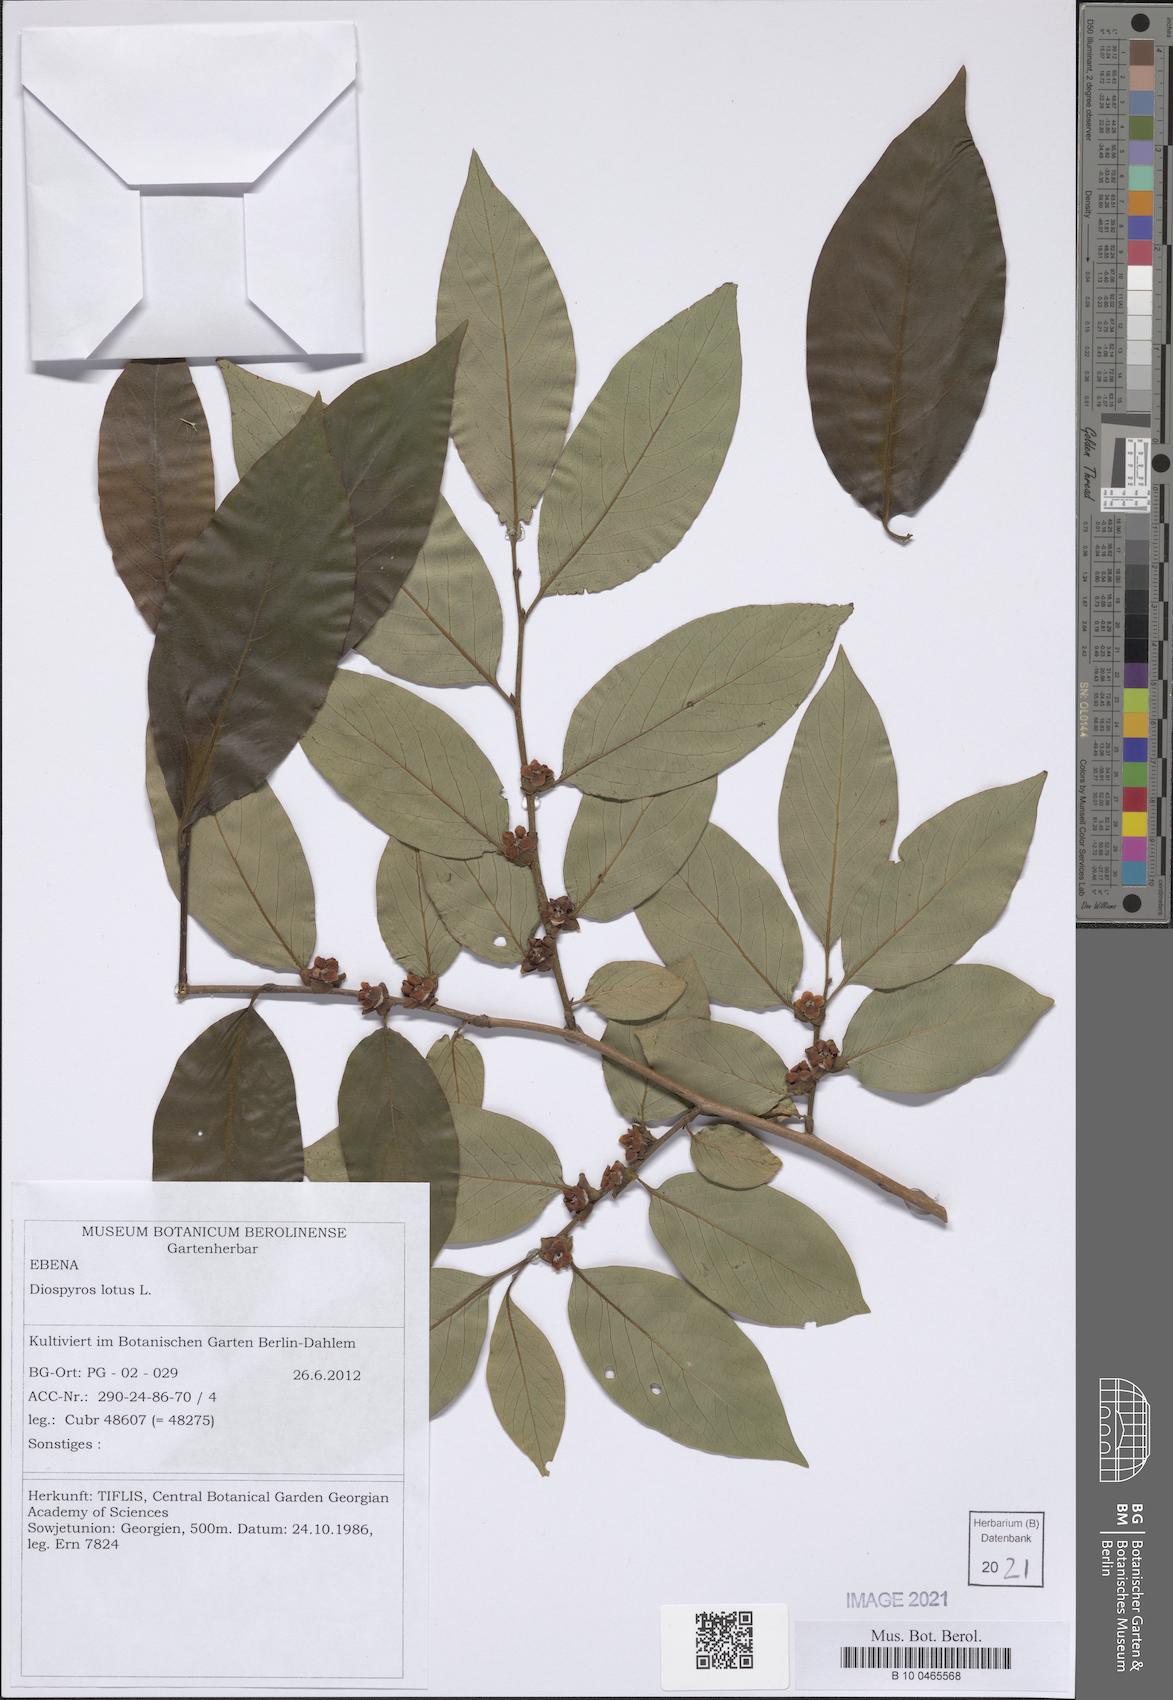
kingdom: Plantae
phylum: Tracheophyta
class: Magnoliopsida
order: Ericales
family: Ebenaceae
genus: Diospyros
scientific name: Diospyros lotus
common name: Date-plum
